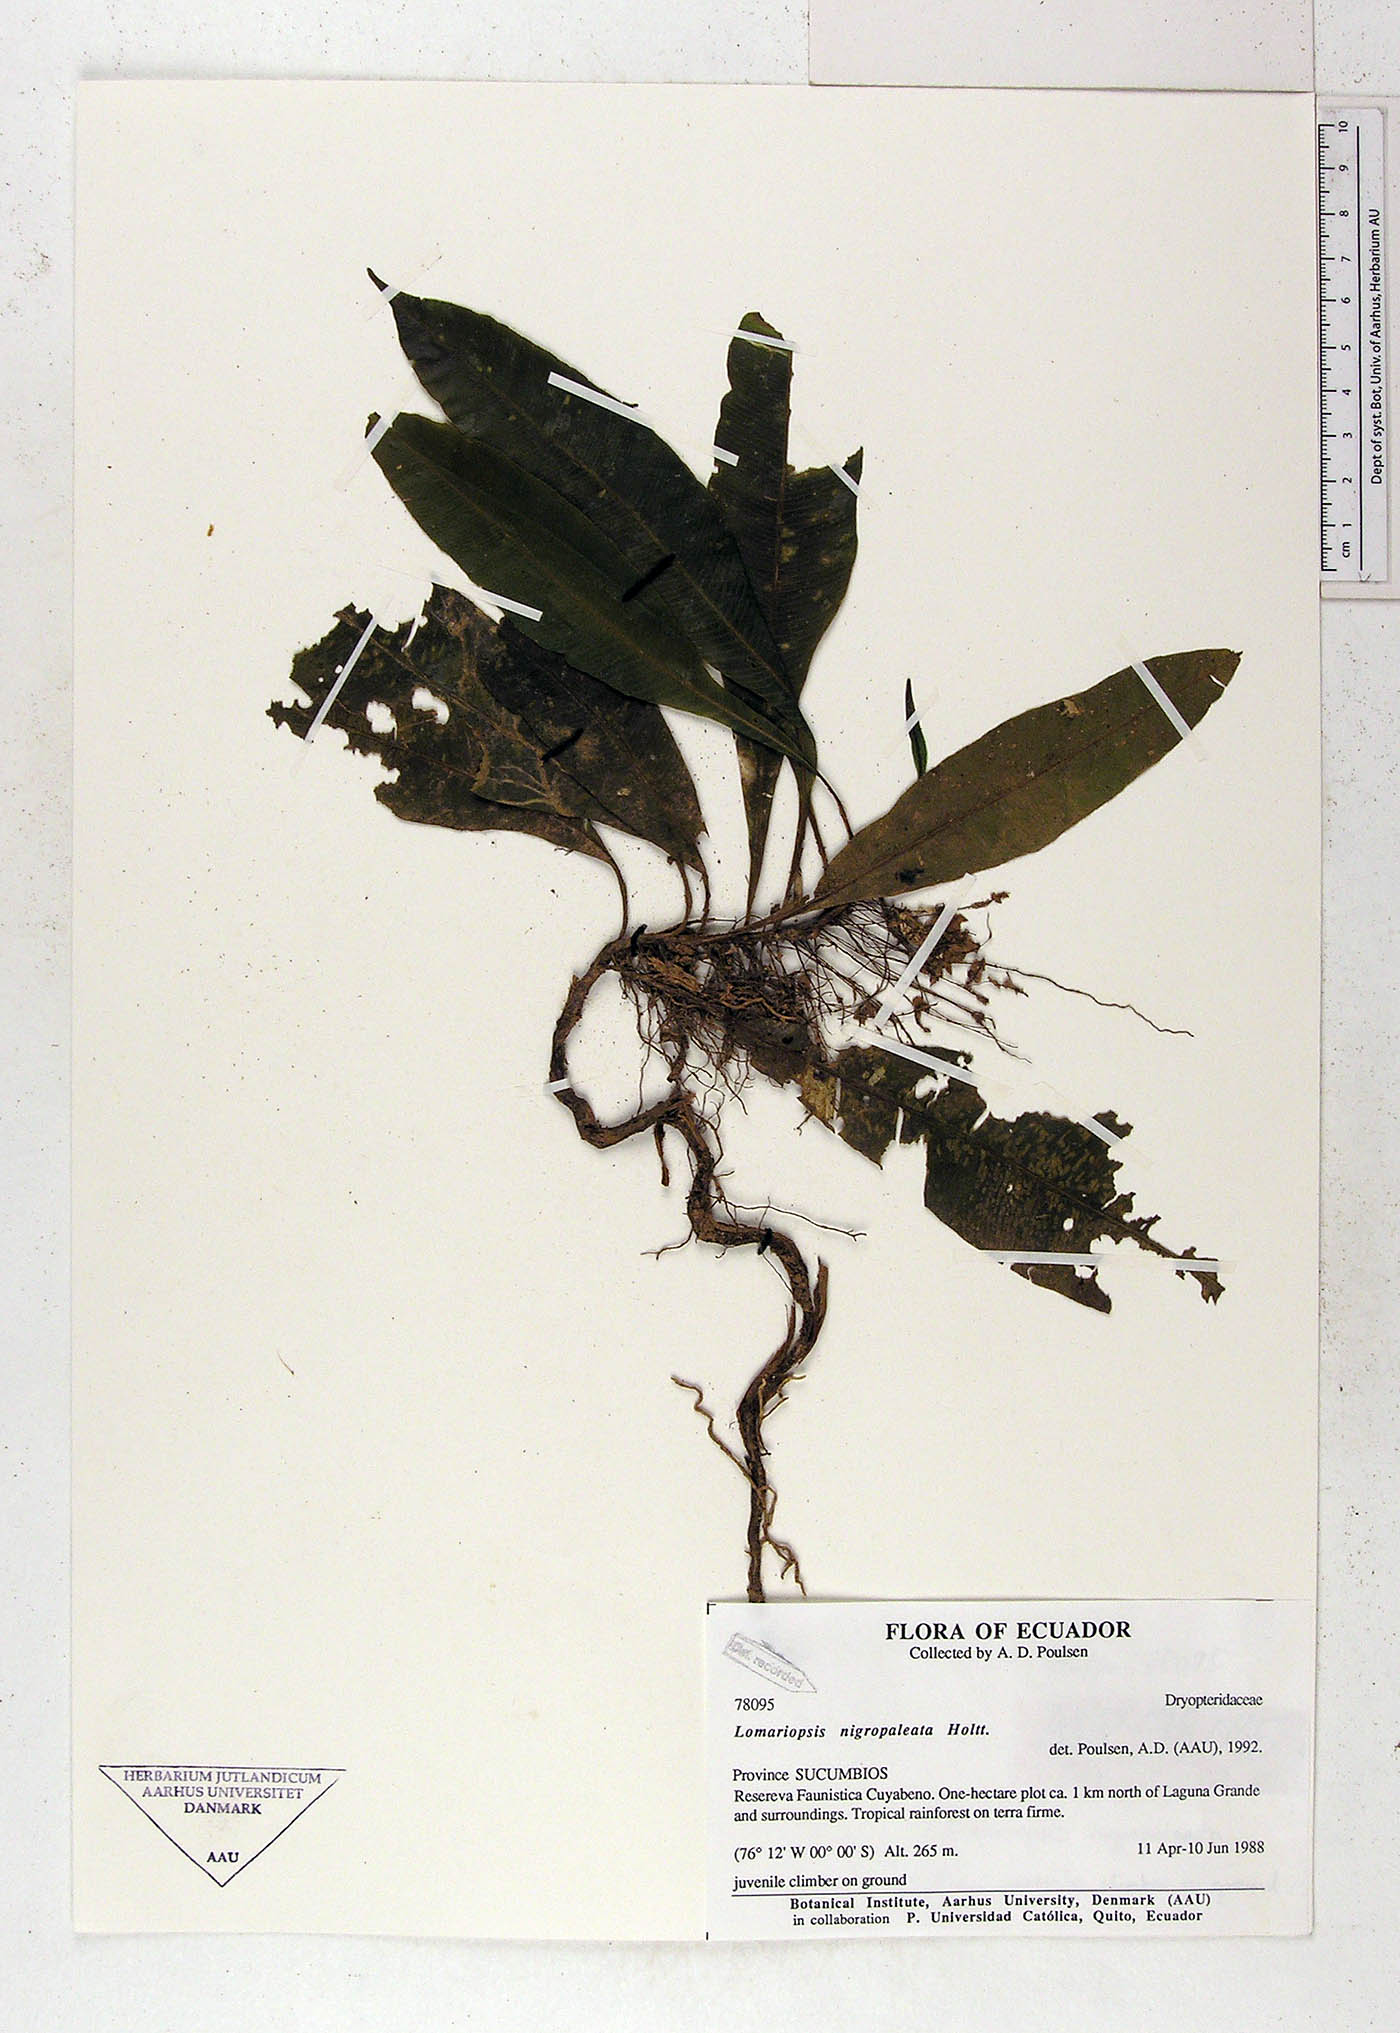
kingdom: Plantae
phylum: Tracheophyta
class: Polypodiopsida
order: Polypodiales
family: Lomariopsidaceae
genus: Lomariopsis
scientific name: Lomariopsis nigropaleata
